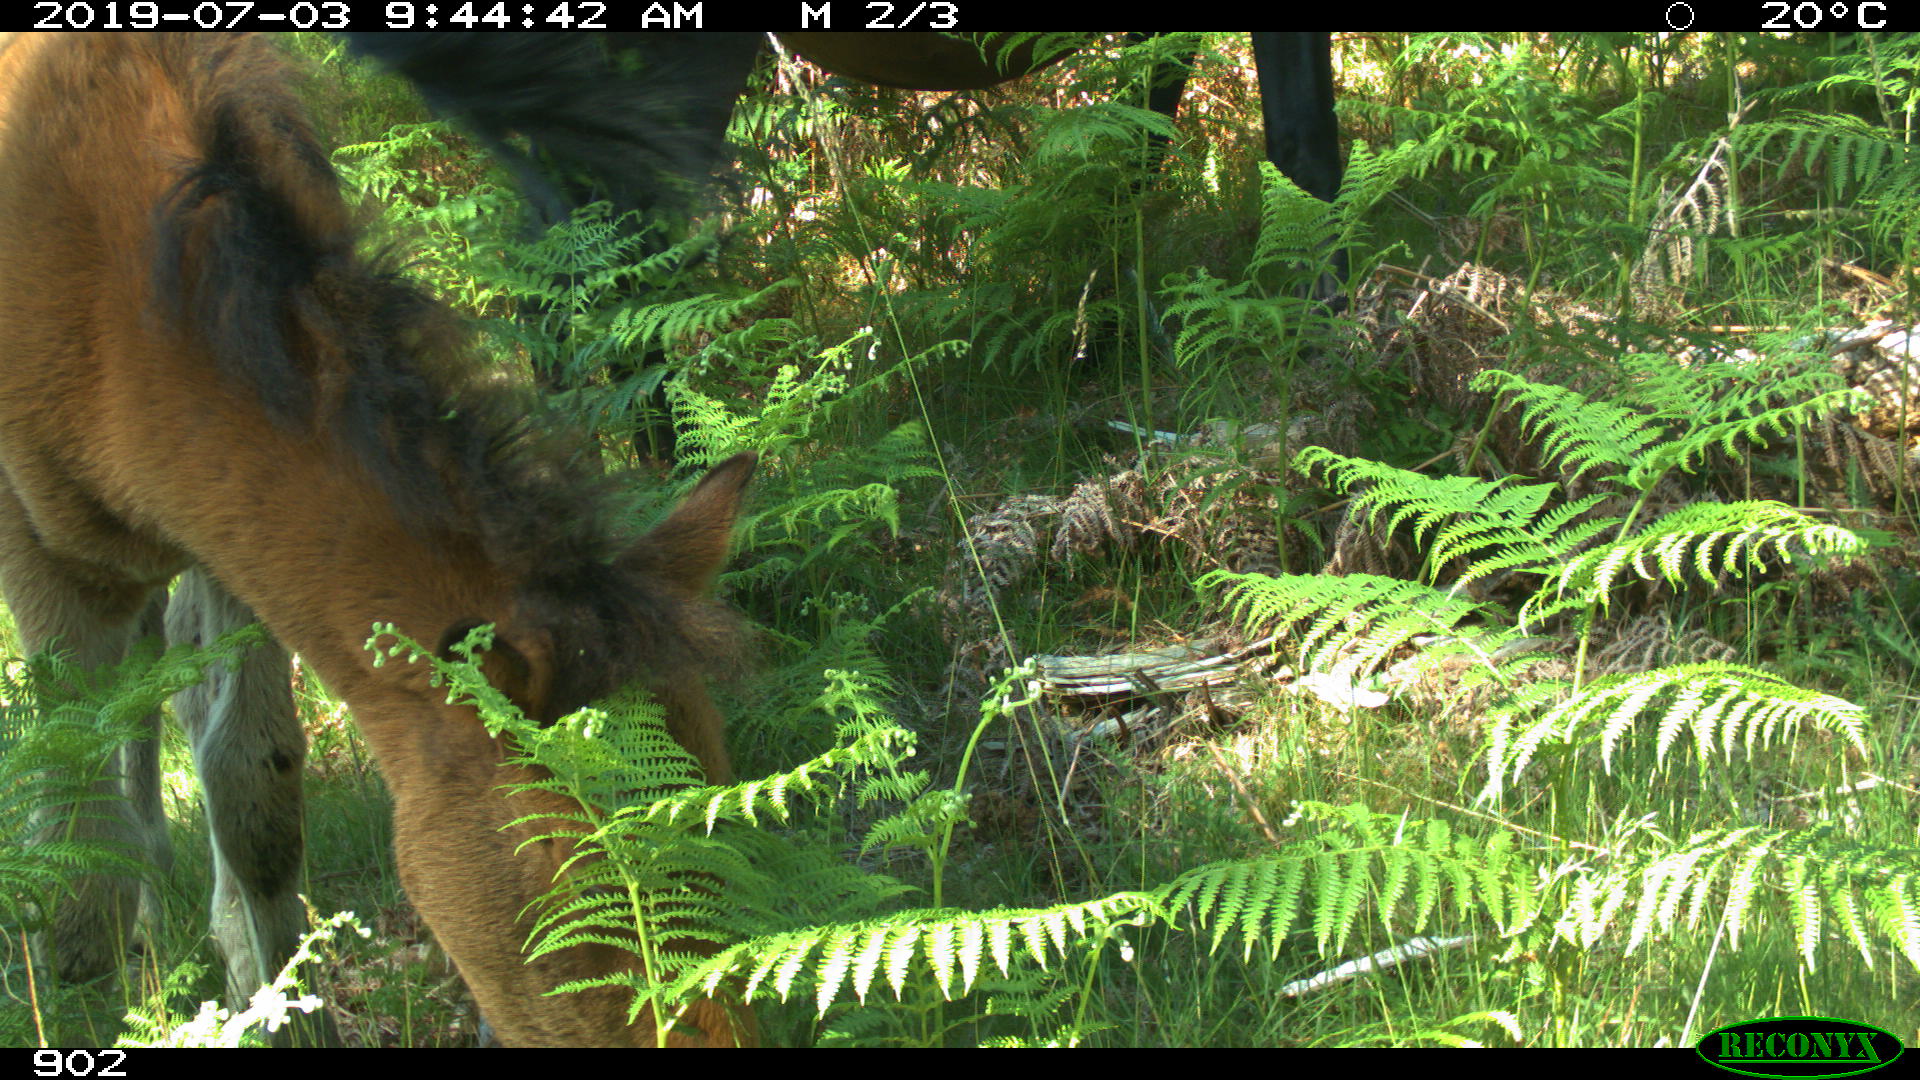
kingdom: Animalia
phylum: Chordata
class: Mammalia
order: Perissodactyla
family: Equidae
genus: Equus
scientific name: Equus caballus
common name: Horse
